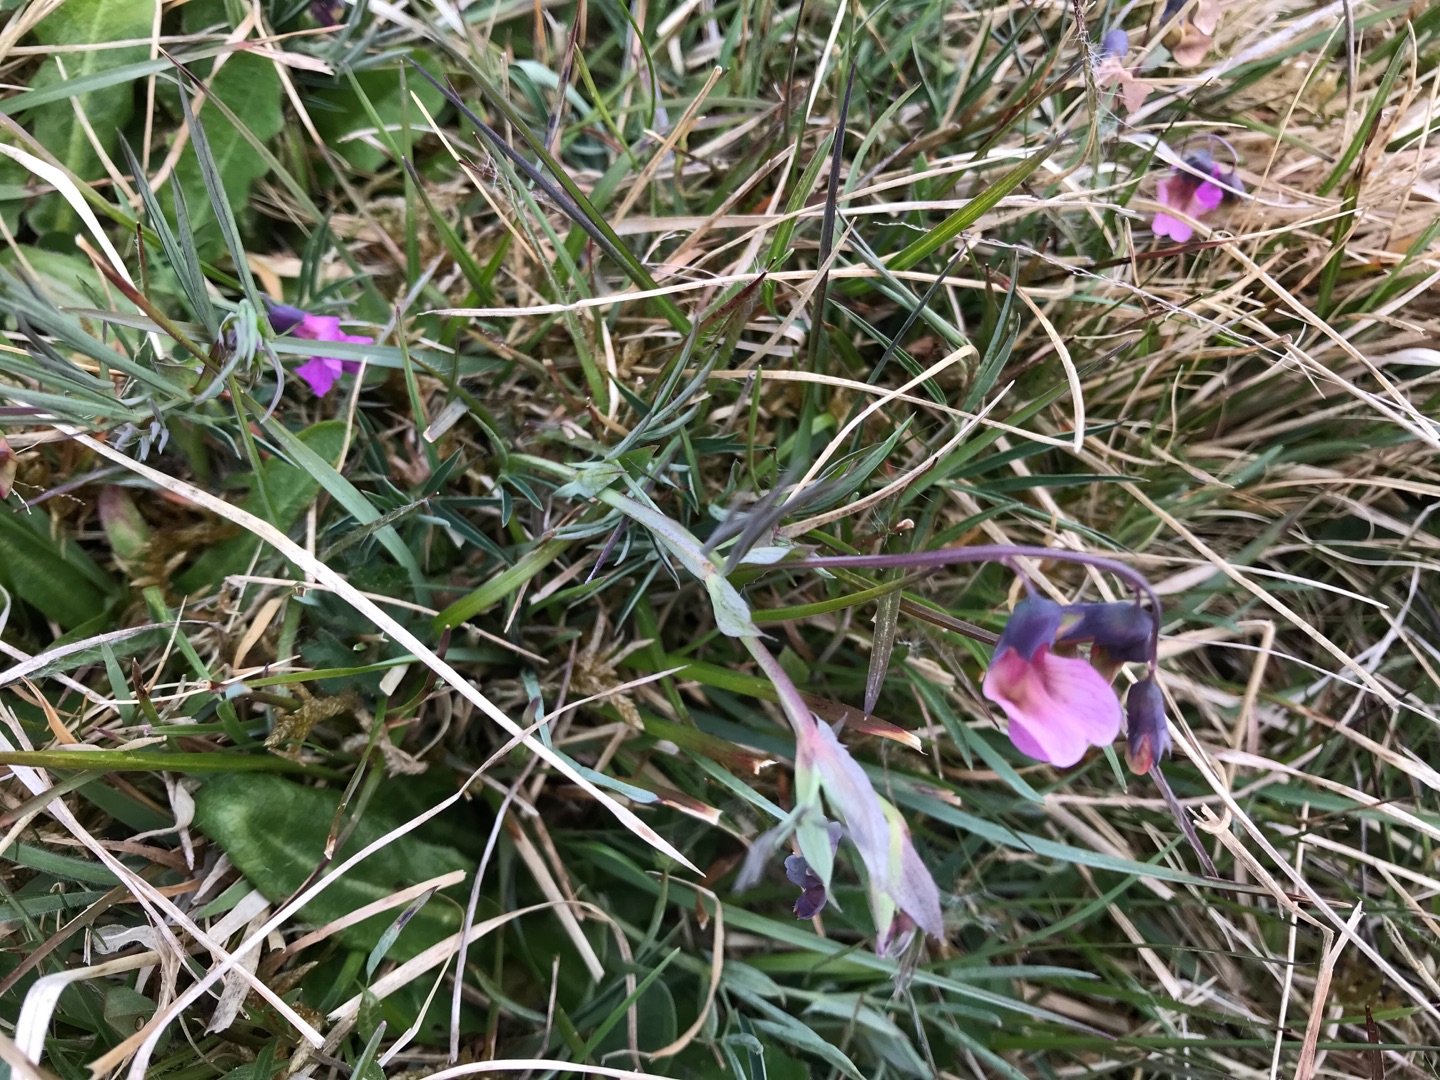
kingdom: Plantae
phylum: Tracheophyta
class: Magnoliopsida
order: Fabales
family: Fabaceae
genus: Lathyrus
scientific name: Lathyrus linifolius
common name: Krat-fladbælg
